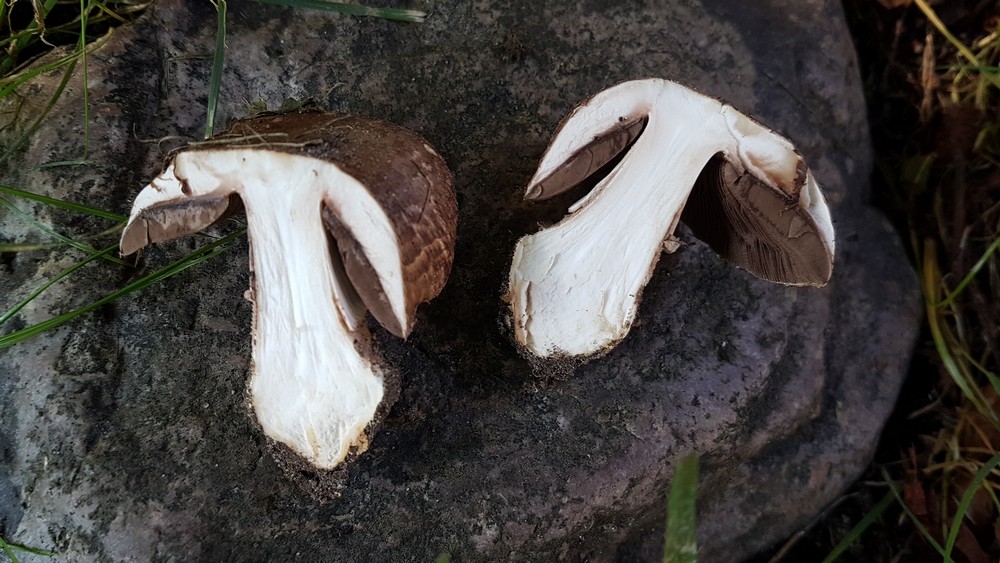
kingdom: Fungi
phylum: Basidiomycota
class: Agaricomycetes
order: Agaricales
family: Agaricaceae
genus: Agaricus
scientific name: Agaricus lanipes
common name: uldstokket champignon
